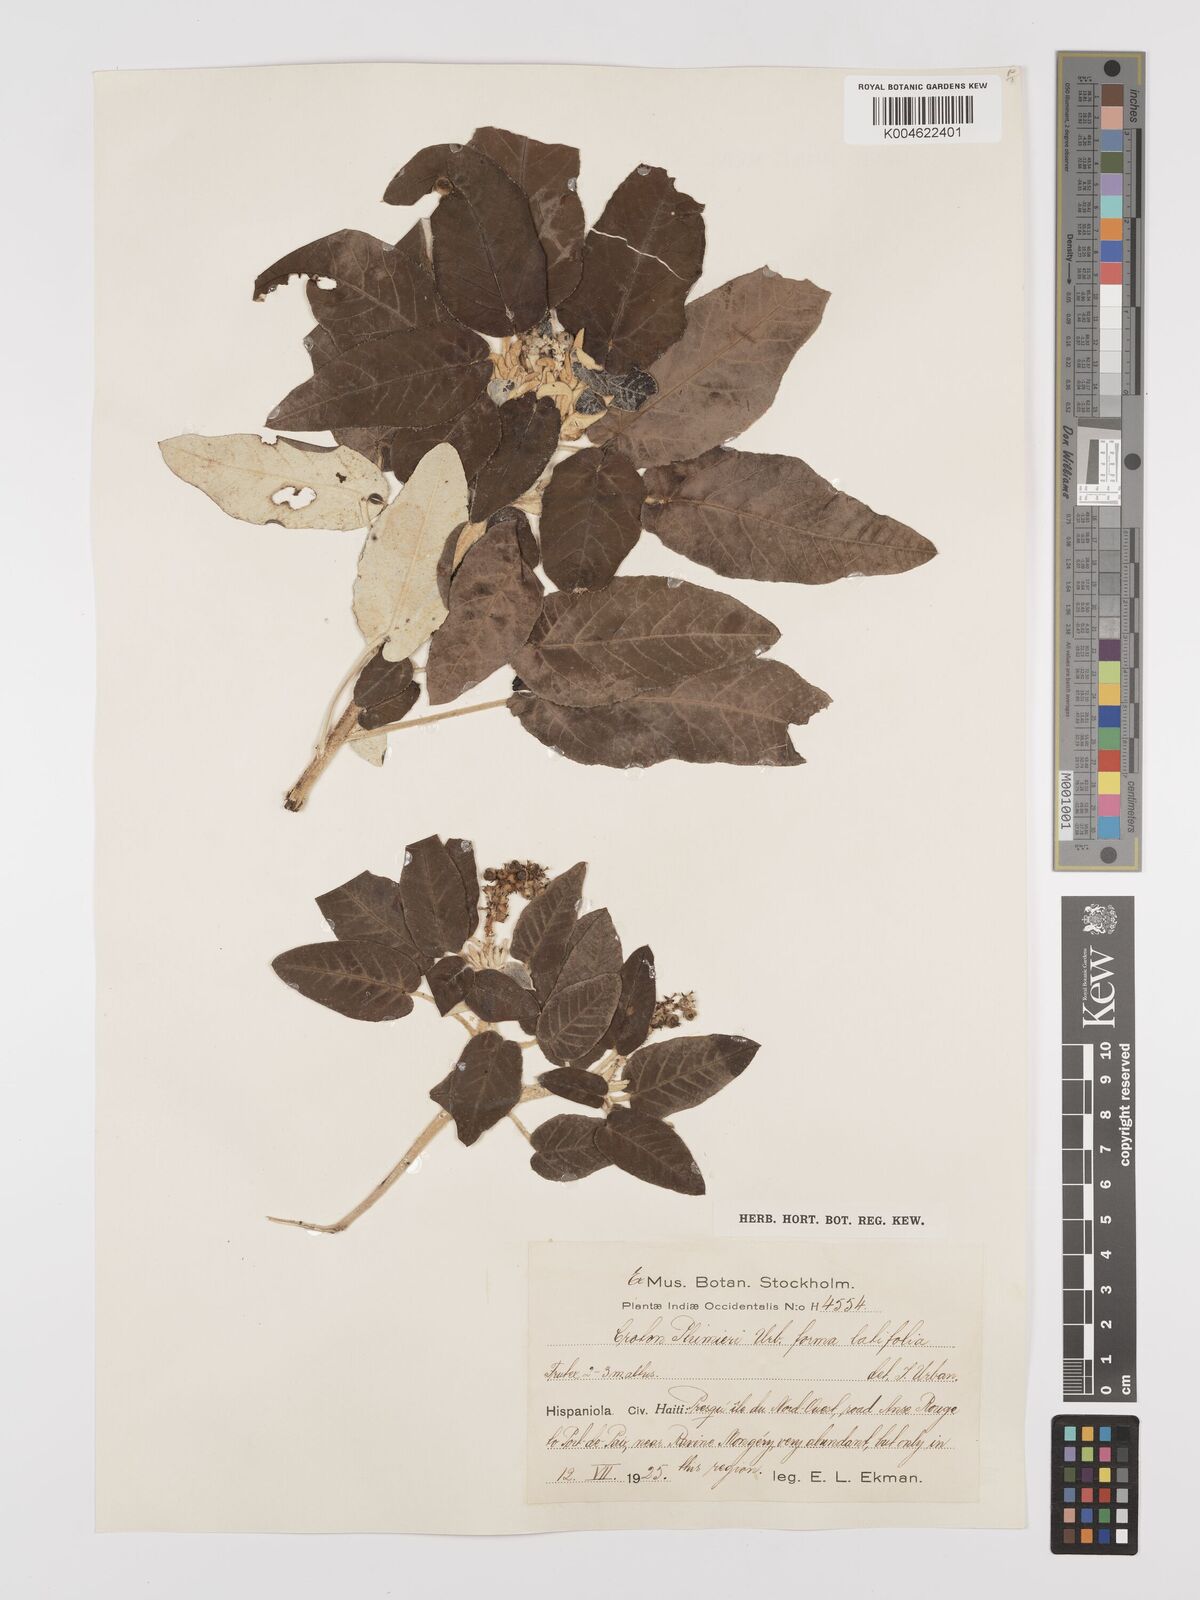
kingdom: Plantae
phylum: Tracheophyta
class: Magnoliopsida
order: Malpighiales
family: Euphorbiaceae
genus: Croton
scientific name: Croton vaillantii
